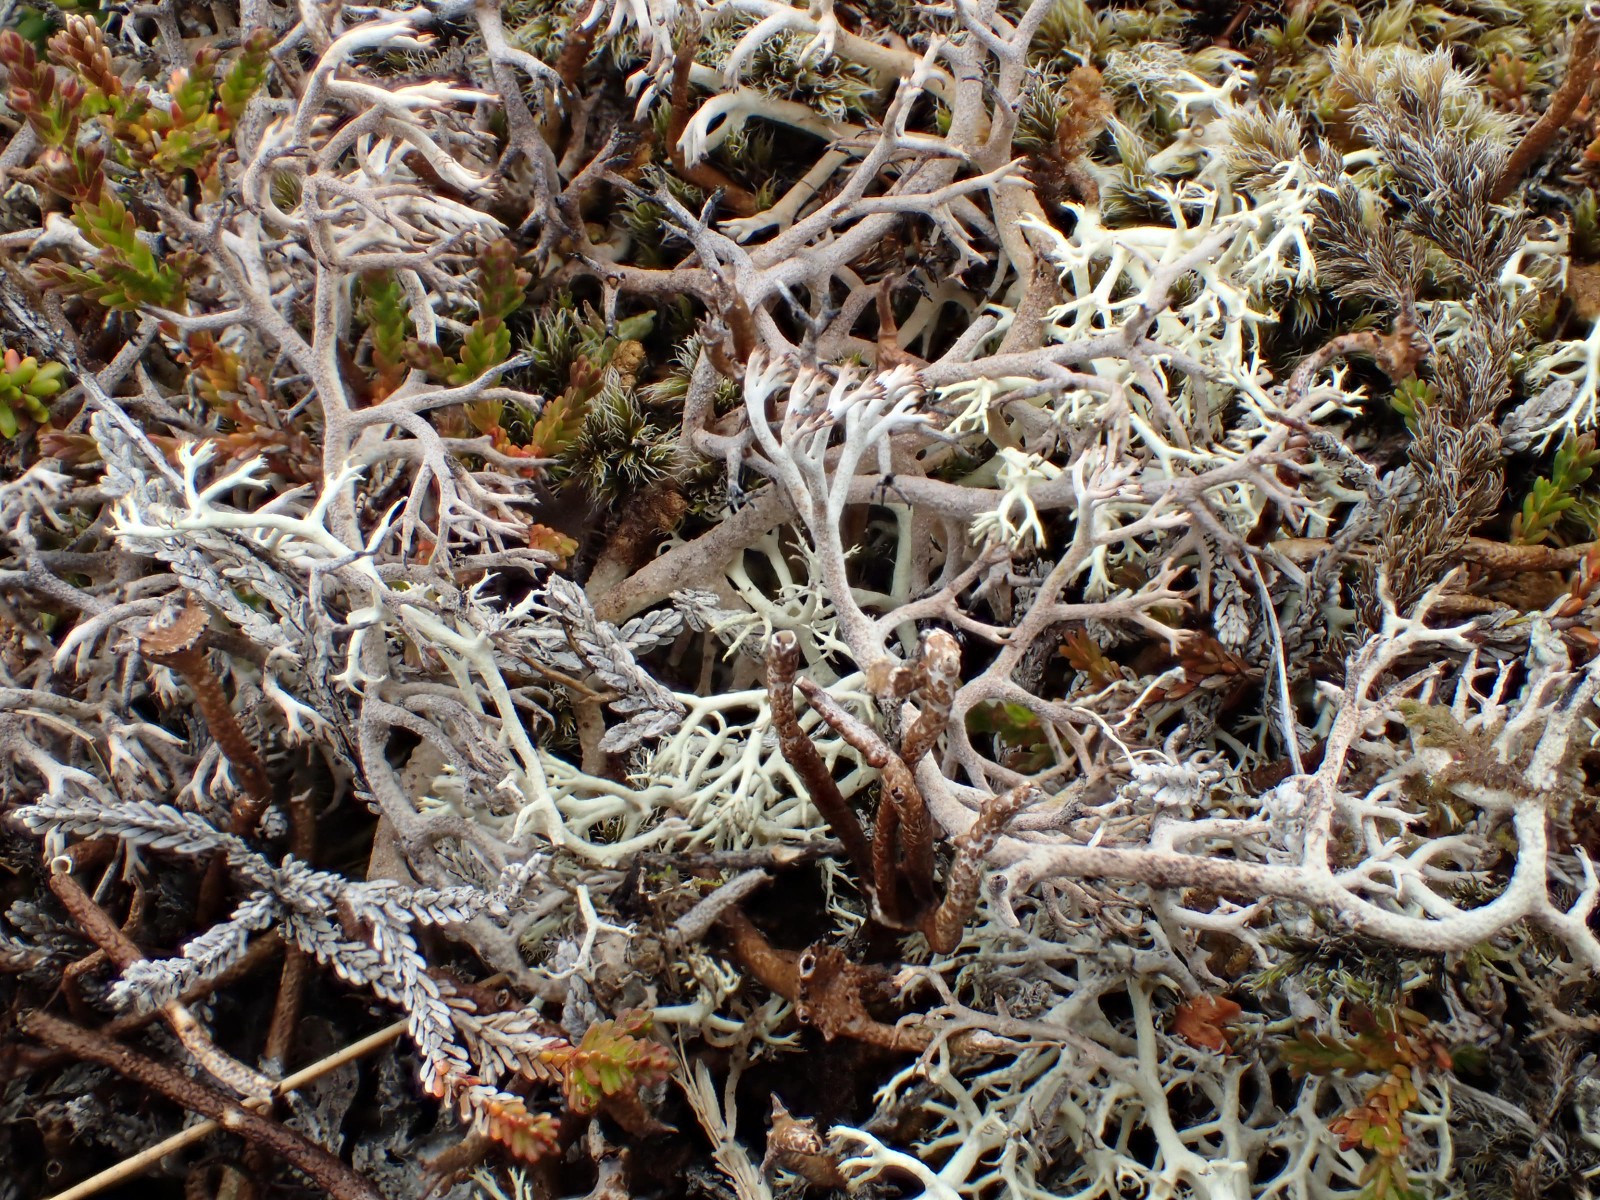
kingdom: Fungi
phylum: Ascomycota
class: Lecanoromycetes
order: Lecanorales
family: Cladoniaceae
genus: Cladonia
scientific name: Cladonia rangiferina
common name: askegrå rensdyrlav
